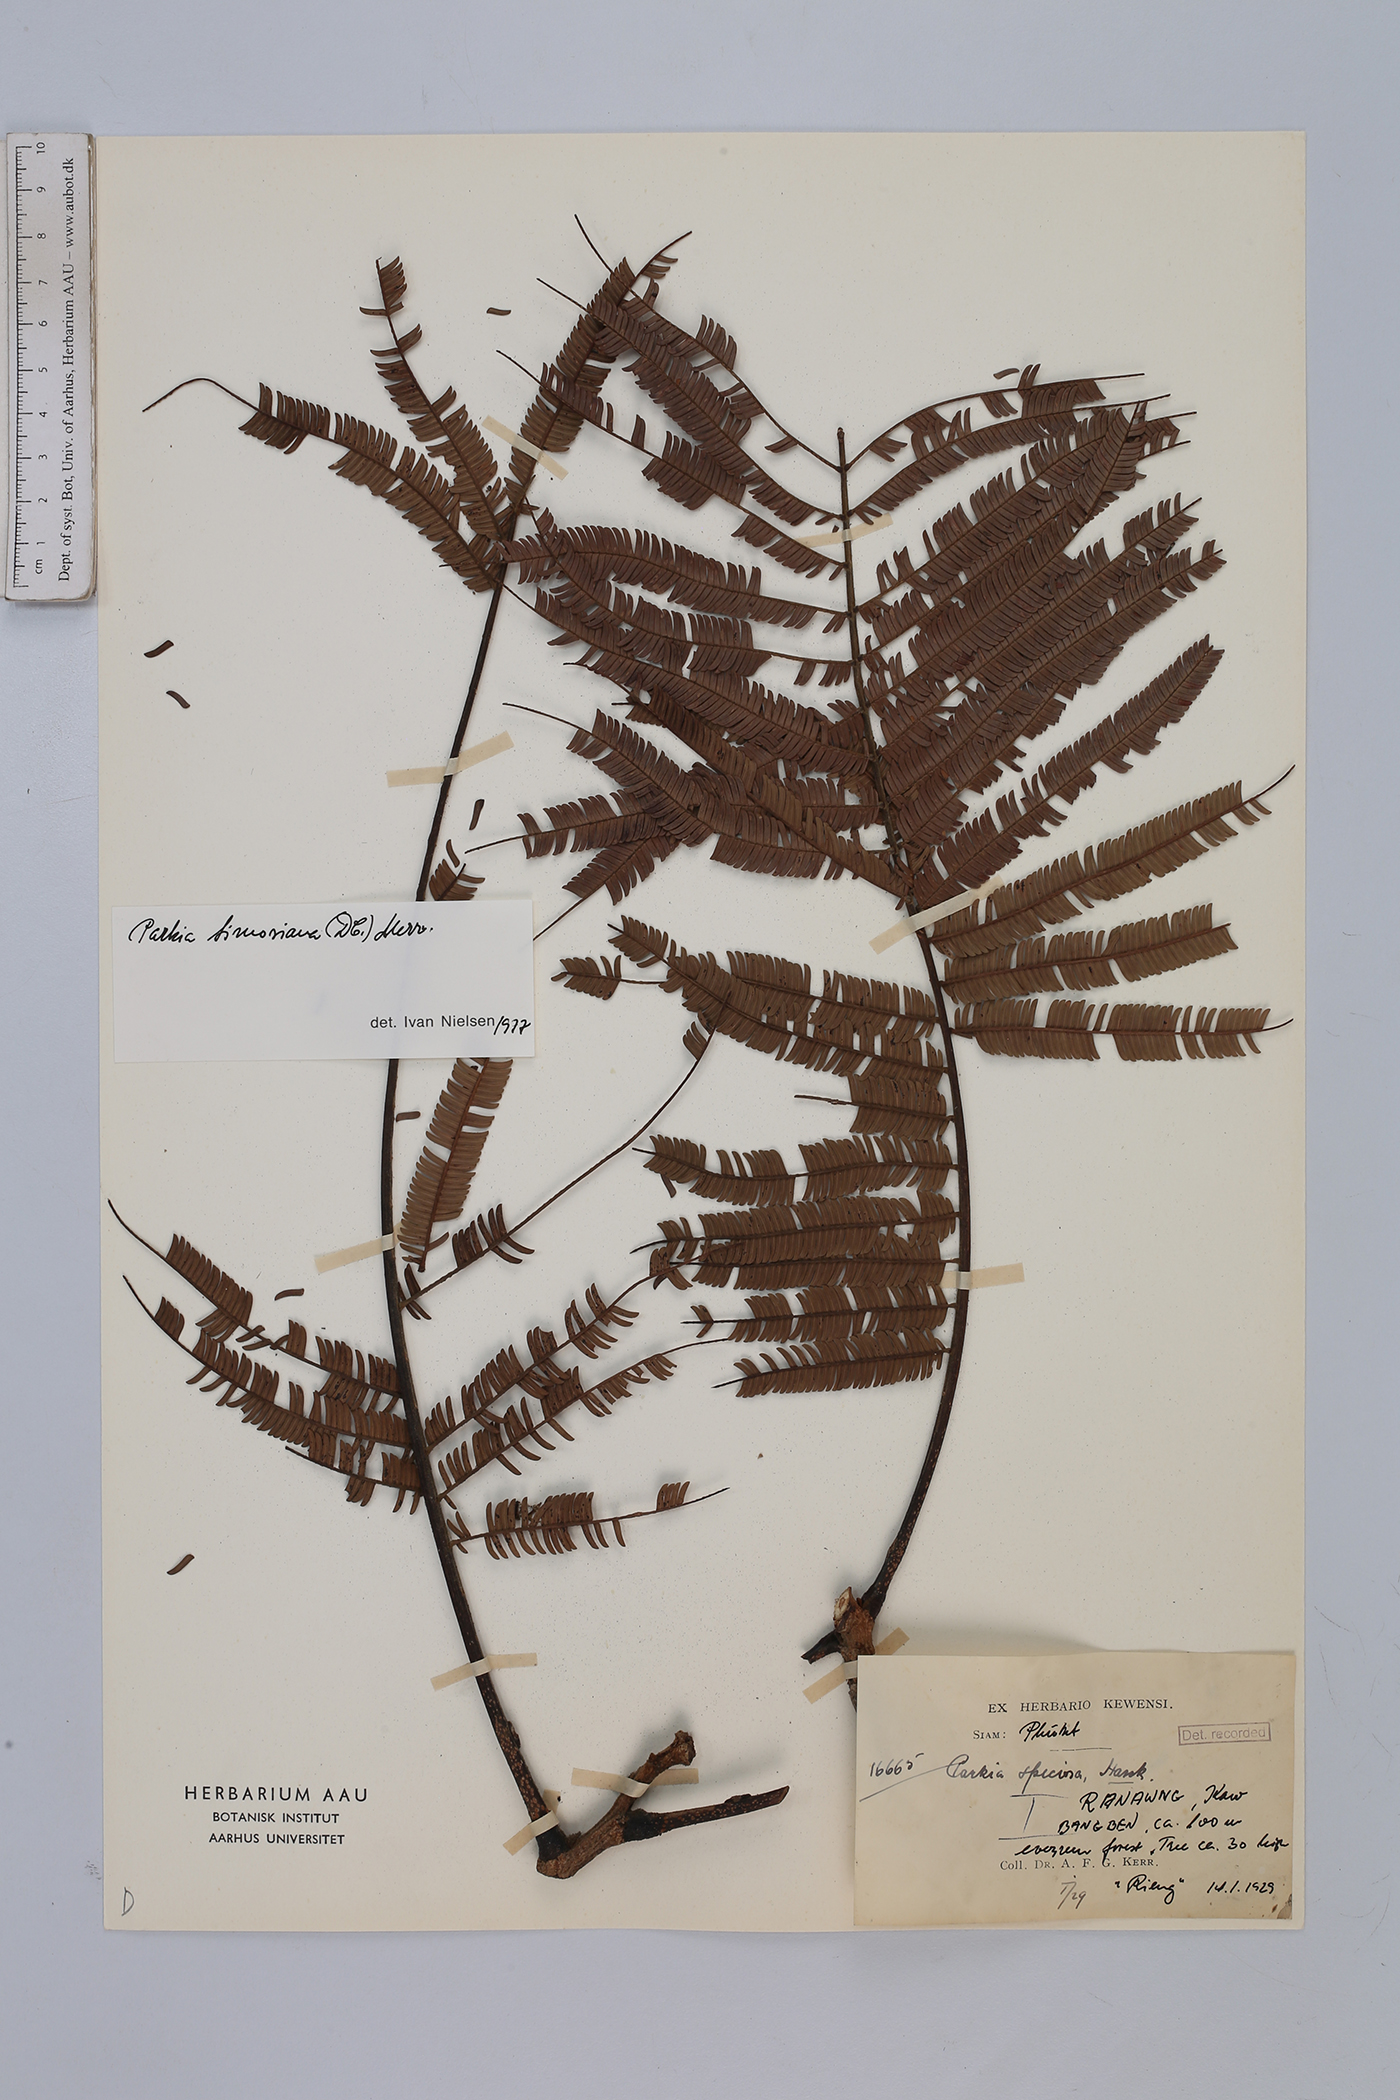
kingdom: Plantae
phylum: Tracheophyta
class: Magnoliopsida
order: Fabales
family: Fabaceae
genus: Parkia
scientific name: Parkia timoriana
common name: Legume
